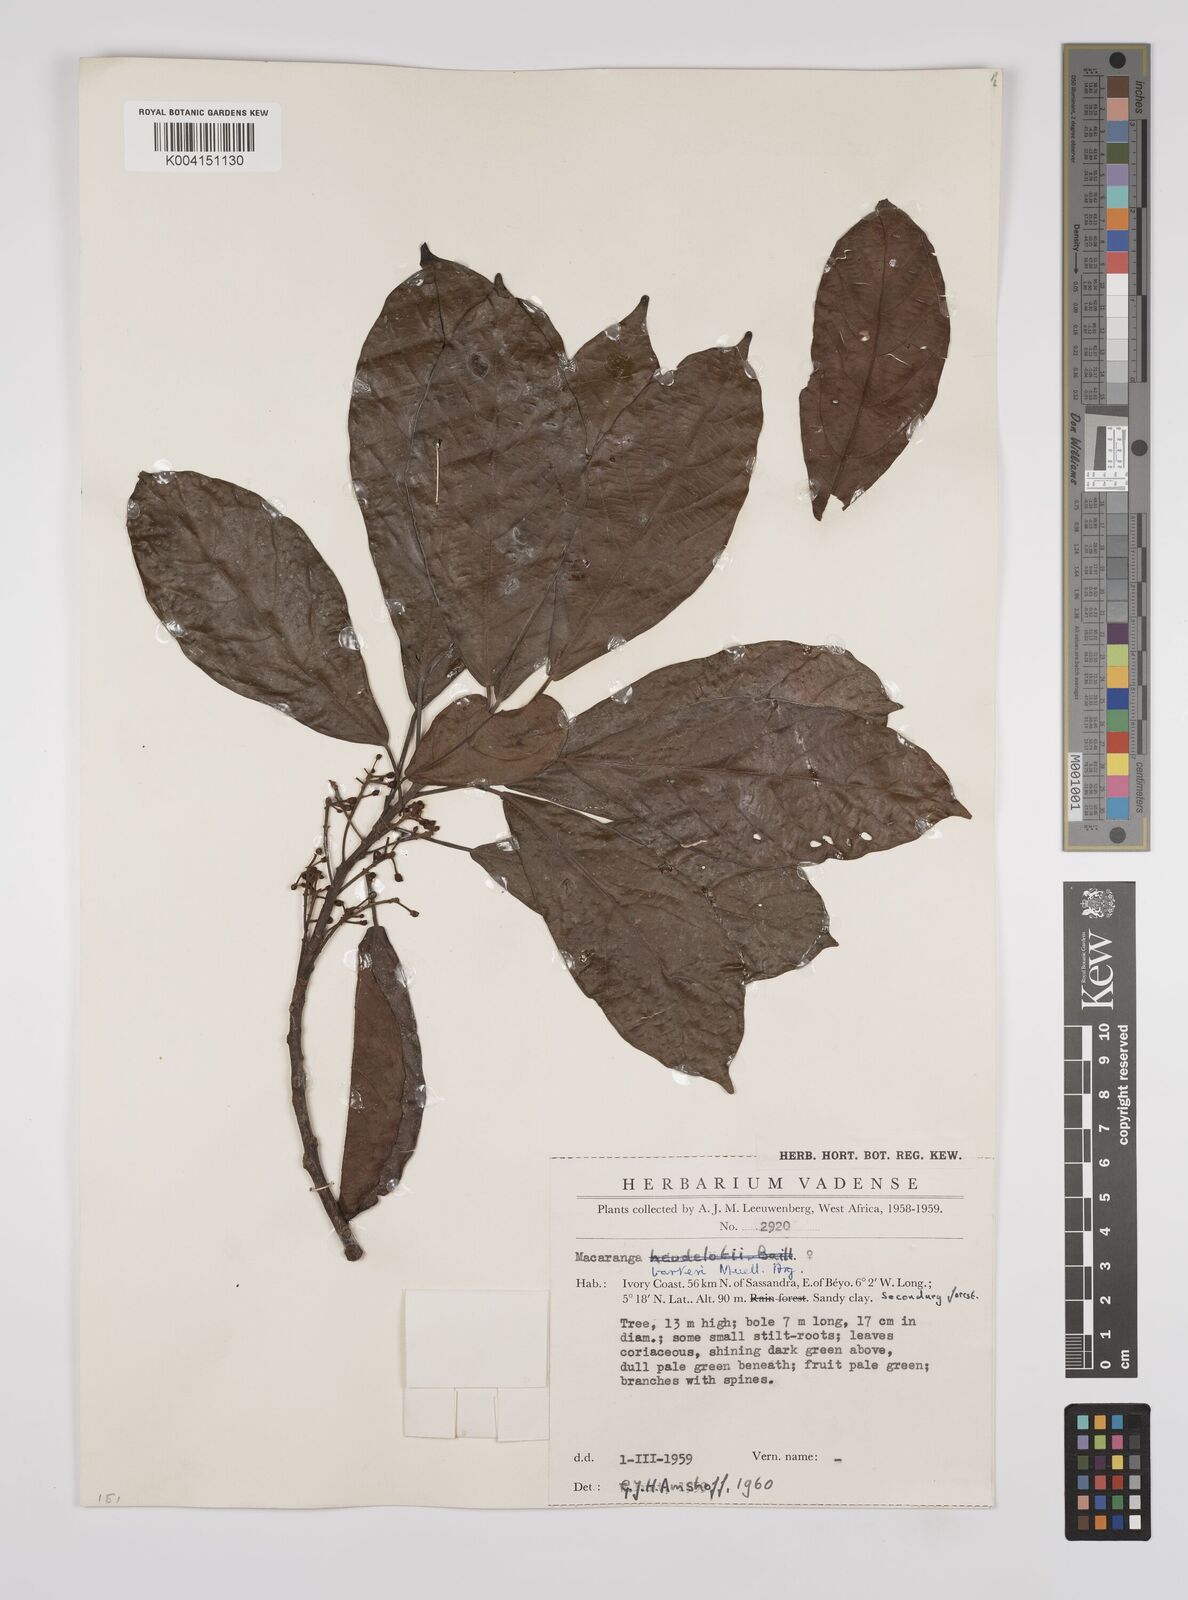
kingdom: Plantae
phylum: Tracheophyta
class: Magnoliopsida
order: Malpighiales
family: Euphorbiaceae
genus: Macaranga
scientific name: Macaranga barteri
